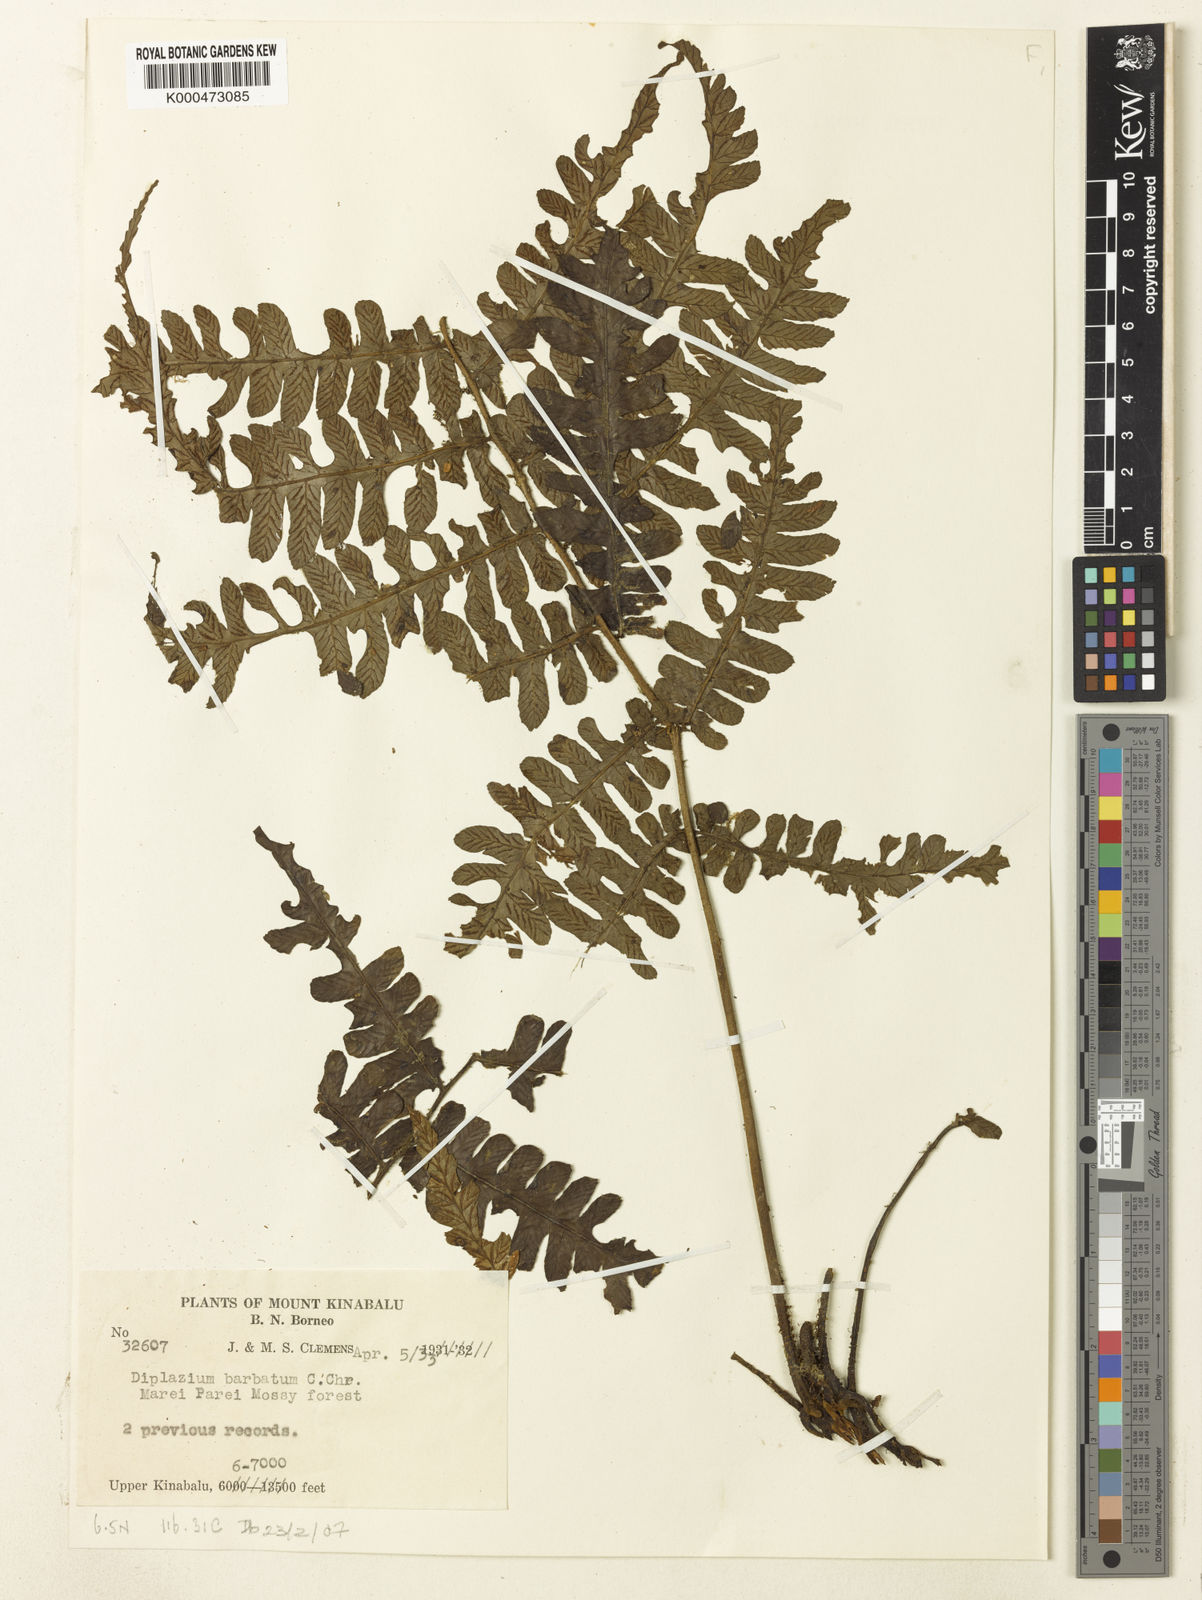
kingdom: Plantae
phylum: Tracheophyta
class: Polypodiopsida
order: Polypodiales
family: Athyriaceae
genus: Diplazium
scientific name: Diplazium barbatum
